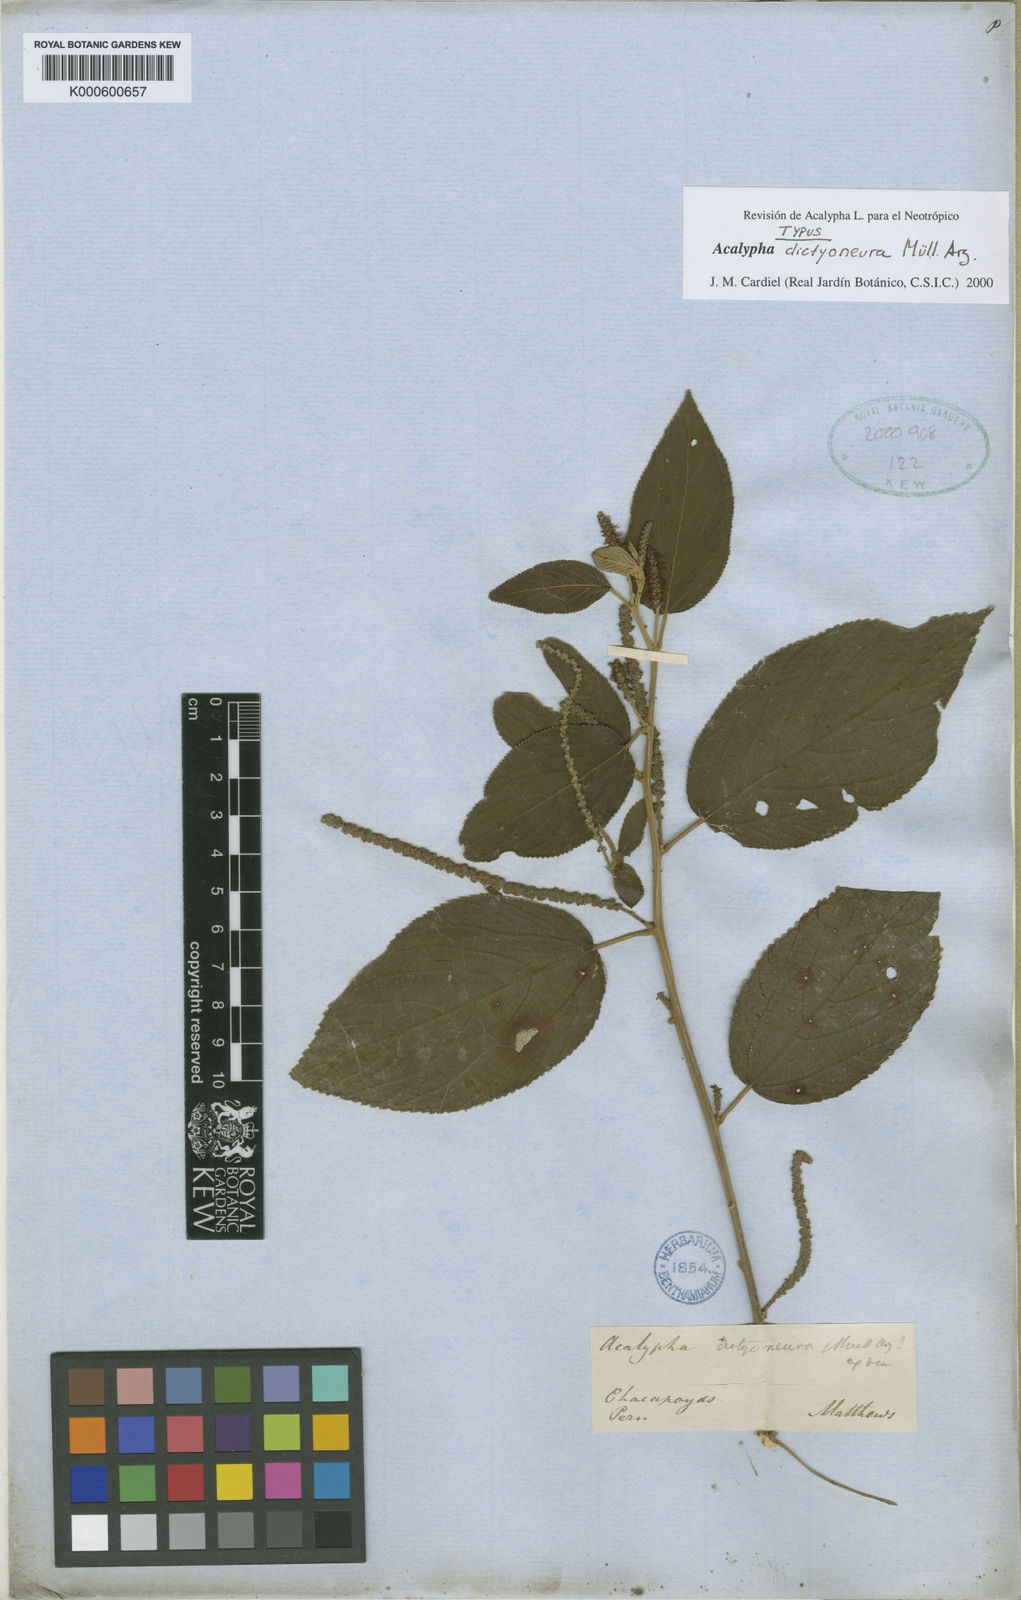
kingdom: Plantae
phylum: Tracheophyta
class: Magnoliopsida
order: Malpighiales
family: Euphorbiaceae
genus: Acalypha
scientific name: Acalypha
